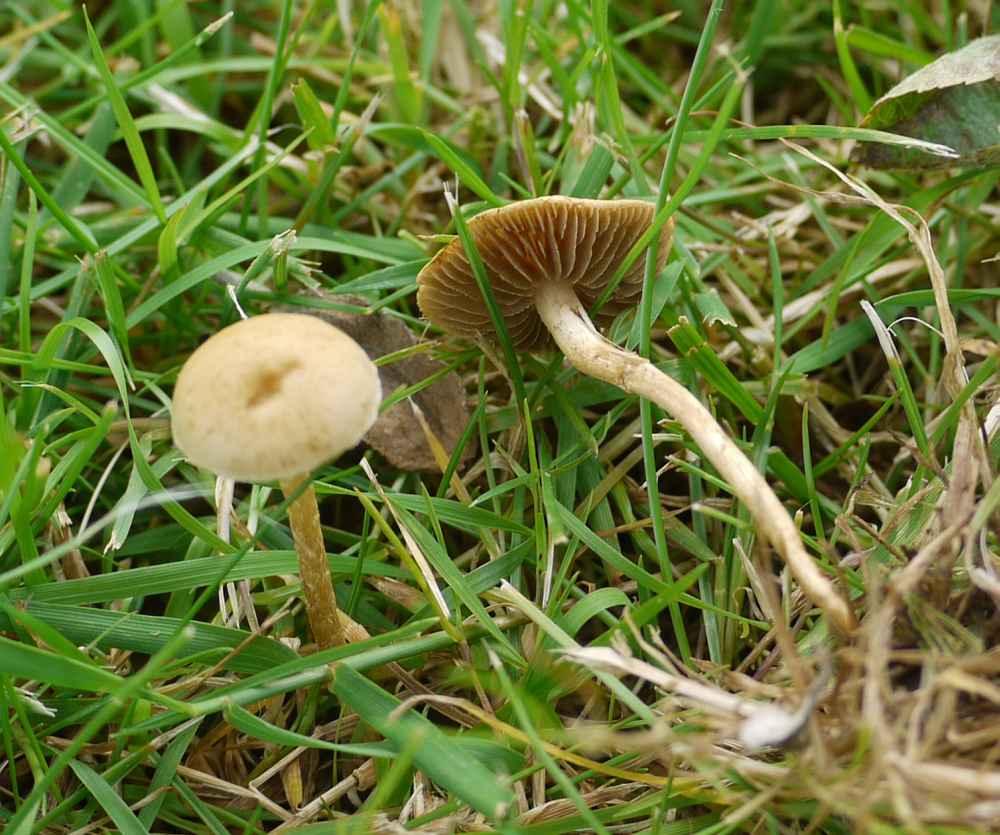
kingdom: Fungi
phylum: Basidiomycota
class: Agaricomycetes
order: Agaricales
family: Strophariaceae
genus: Agrocybe
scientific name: Agrocybe pediades
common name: almindelig agerhat
